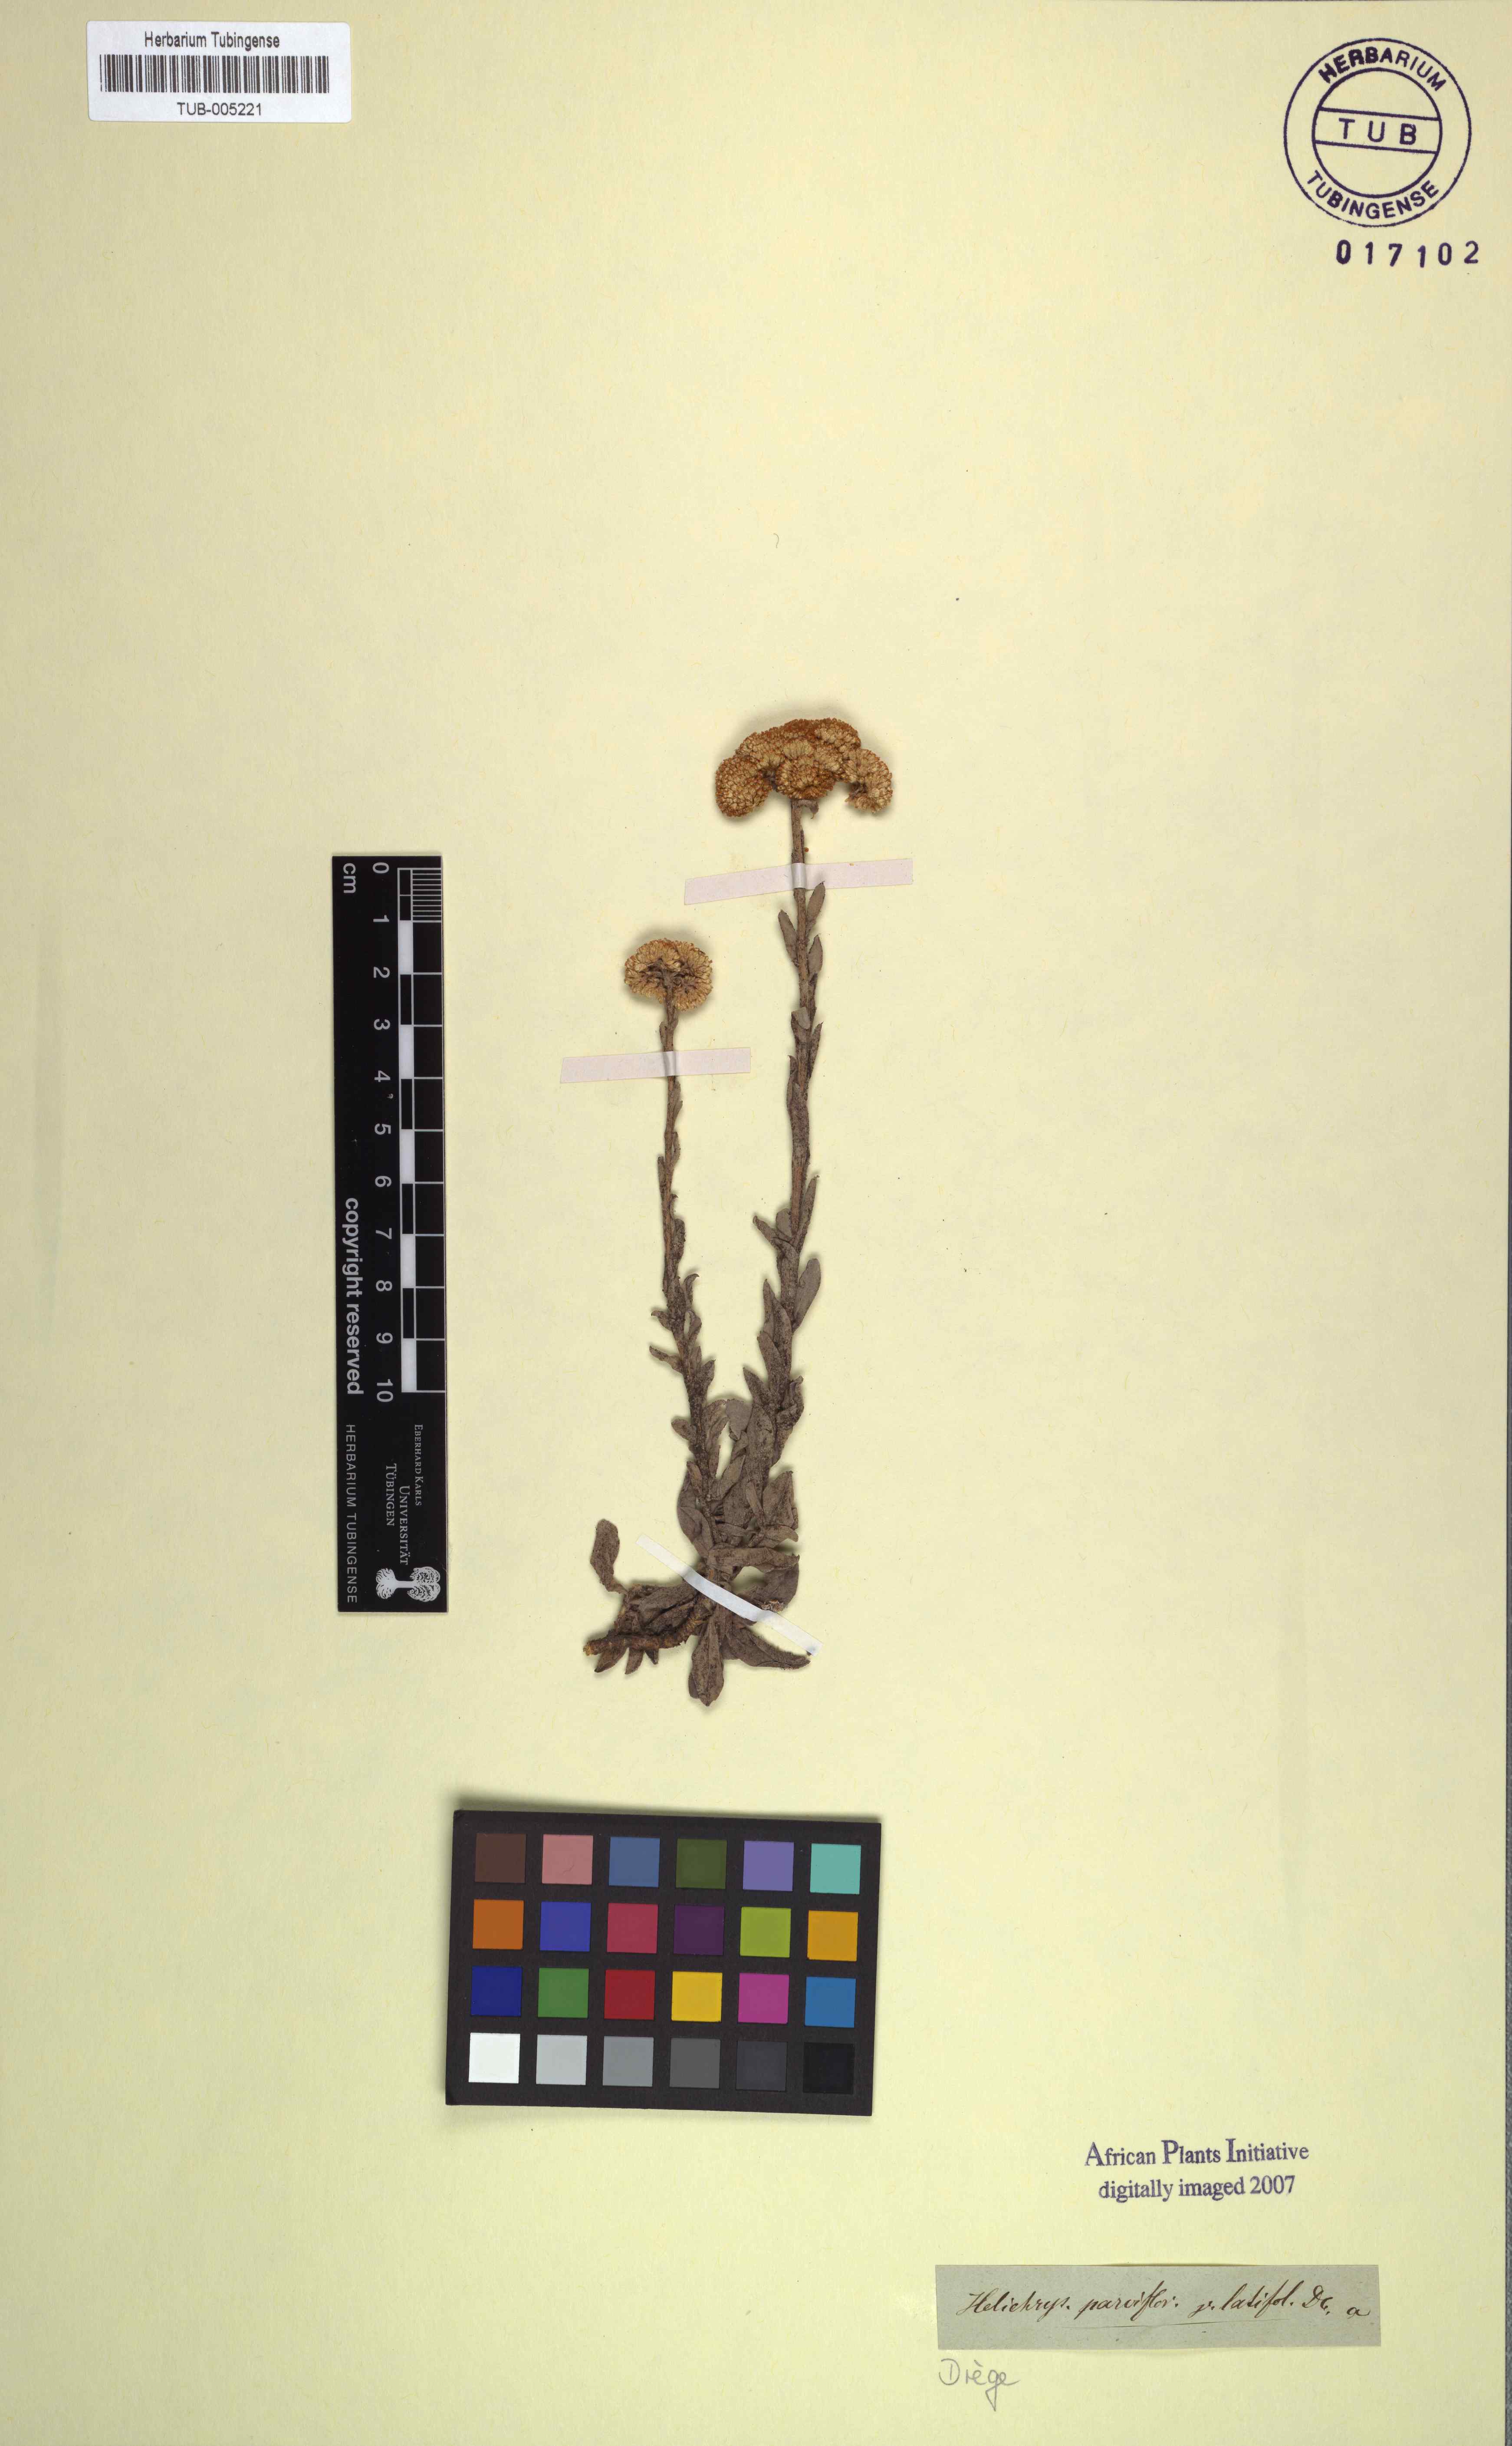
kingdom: Plantae
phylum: Tracheophyta
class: Magnoliopsida
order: Asterales
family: Asteraceae
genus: Helichrysum
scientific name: Helichrysum rutilans
